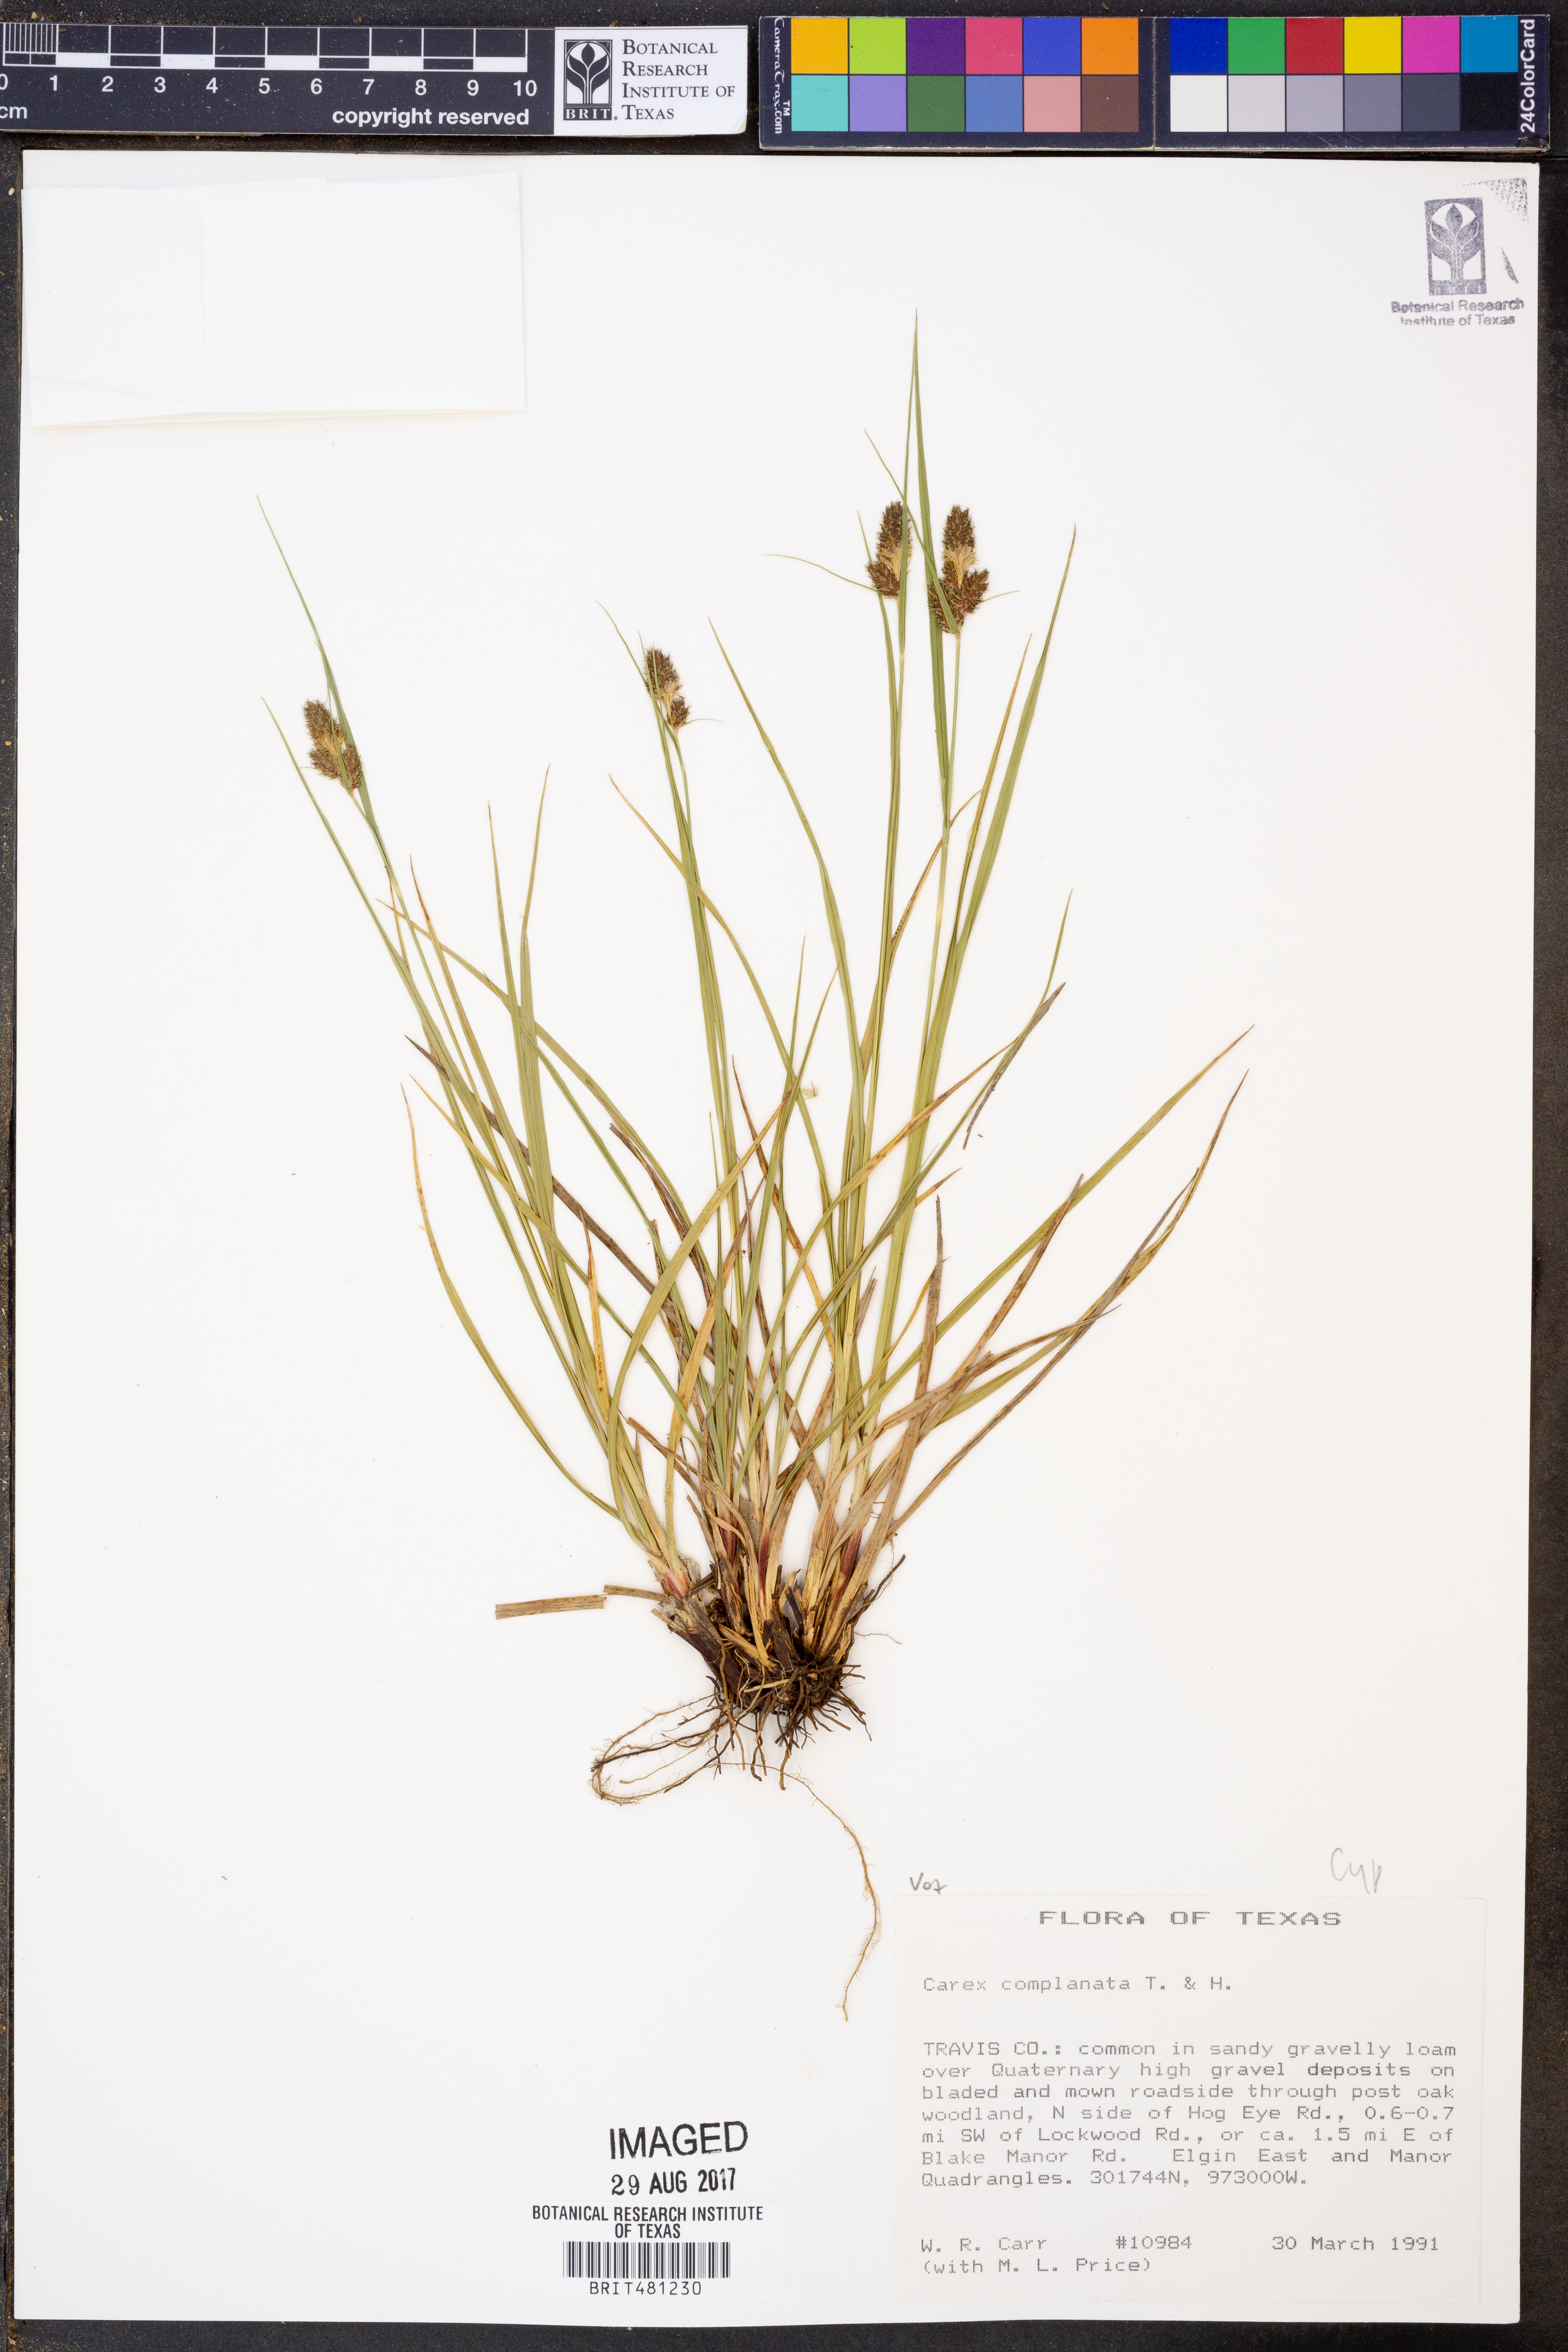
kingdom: Plantae
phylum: Tracheophyta
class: Liliopsida
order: Poales
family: Cyperaceae
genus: Carex
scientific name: Carex complanata
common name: Hirsute sedge
